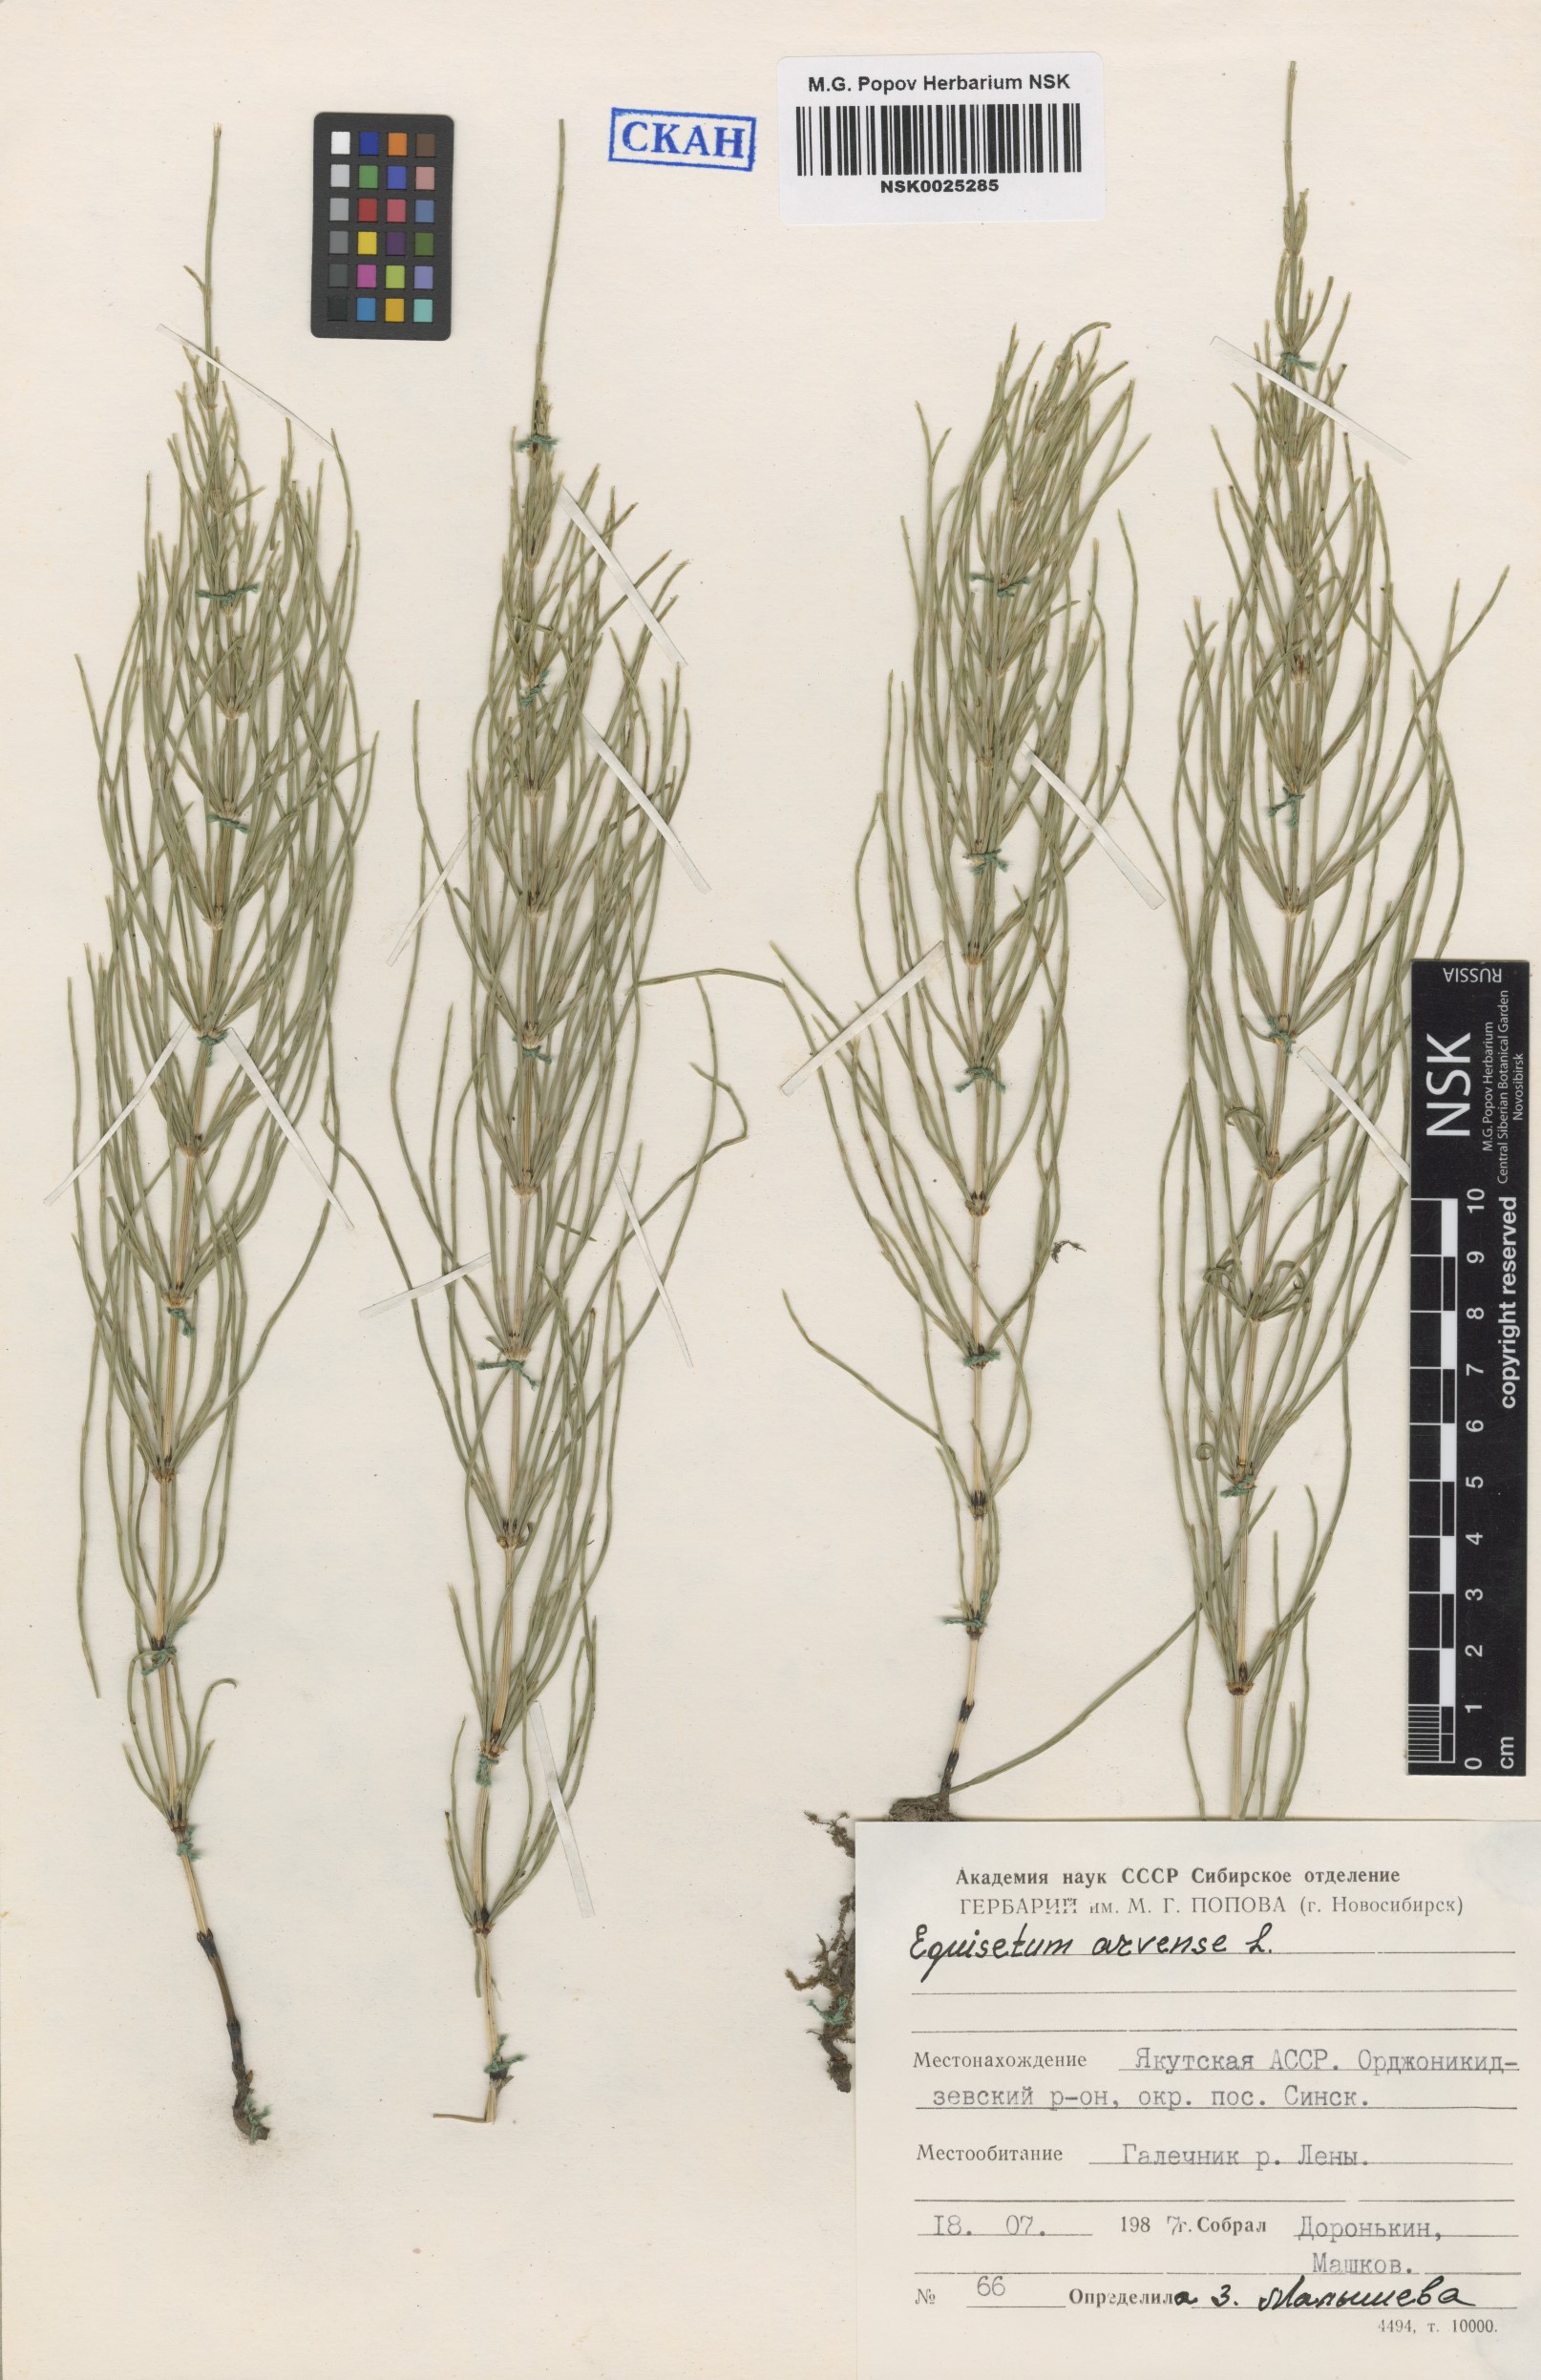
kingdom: Plantae
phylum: Tracheophyta
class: Polypodiopsida
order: Equisetales
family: Equisetaceae
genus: Equisetum
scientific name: Equisetum arvense
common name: Field horsetail
